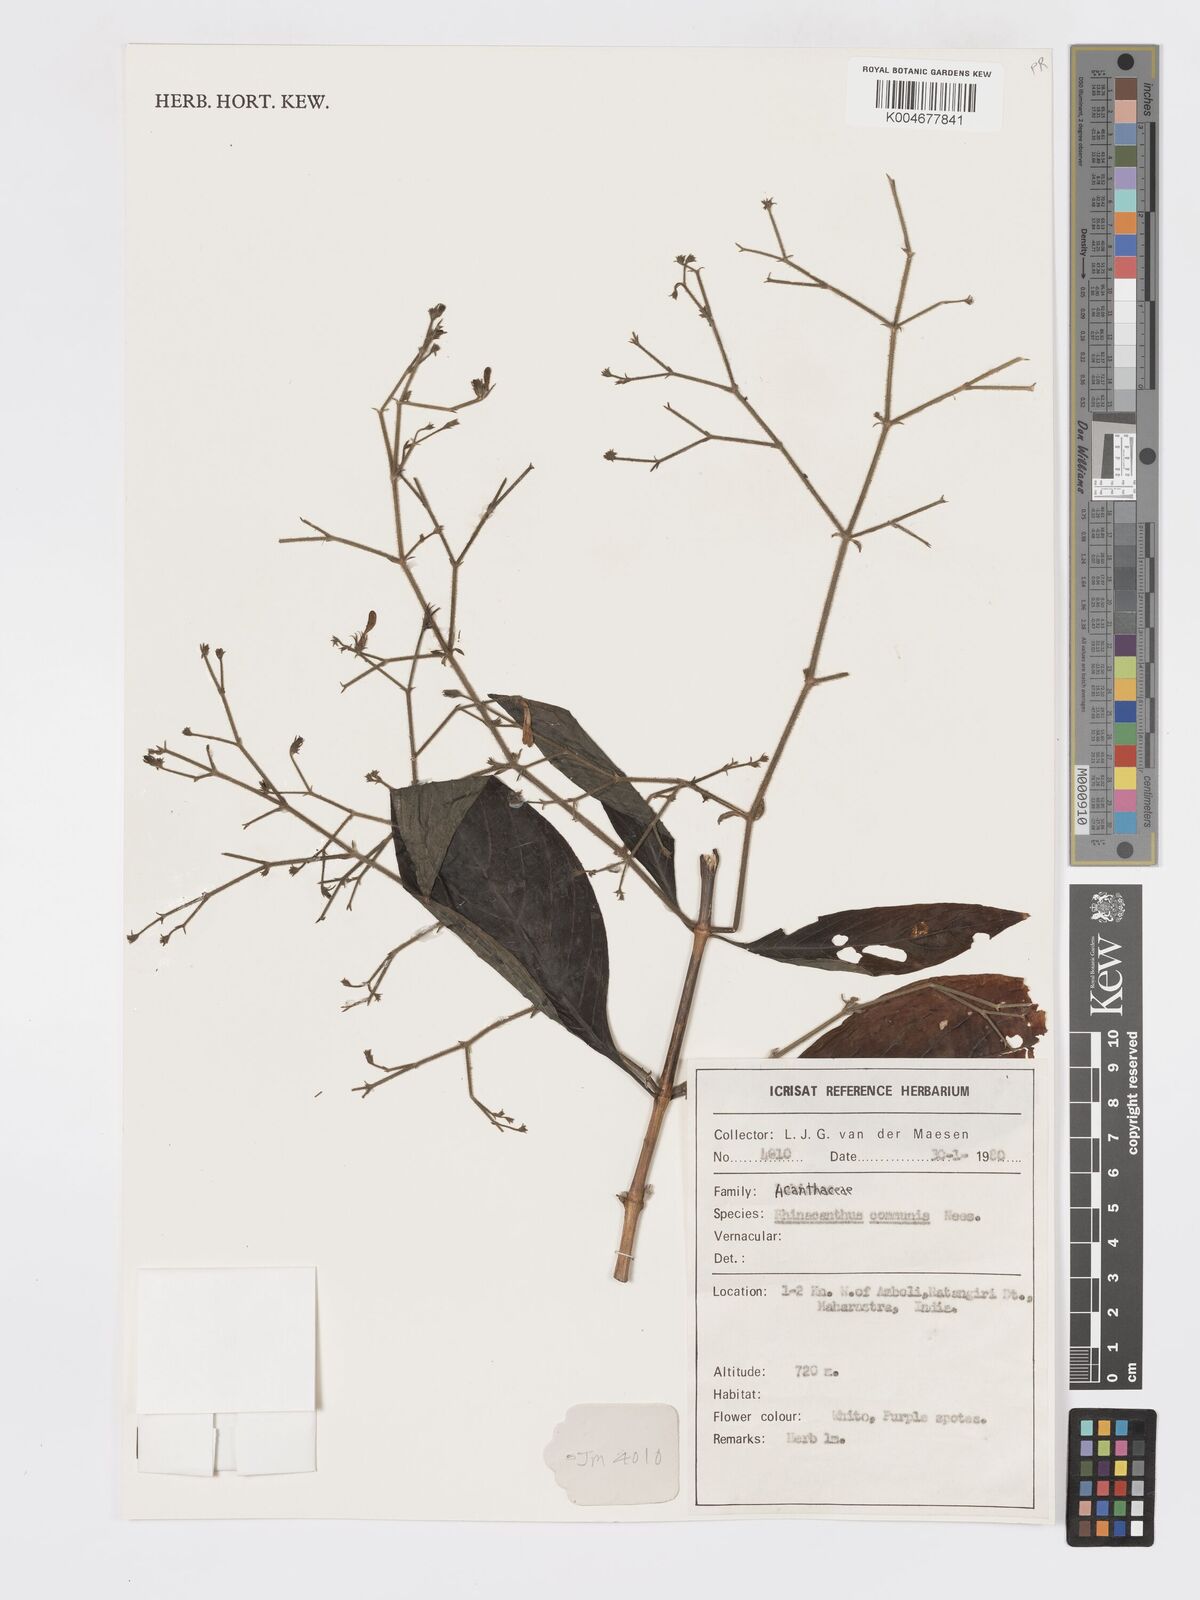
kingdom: Plantae
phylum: Tracheophyta
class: Magnoliopsida
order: Lamiales
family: Acanthaceae
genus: Rhinacanthus
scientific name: Rhinacanthus nasutus
